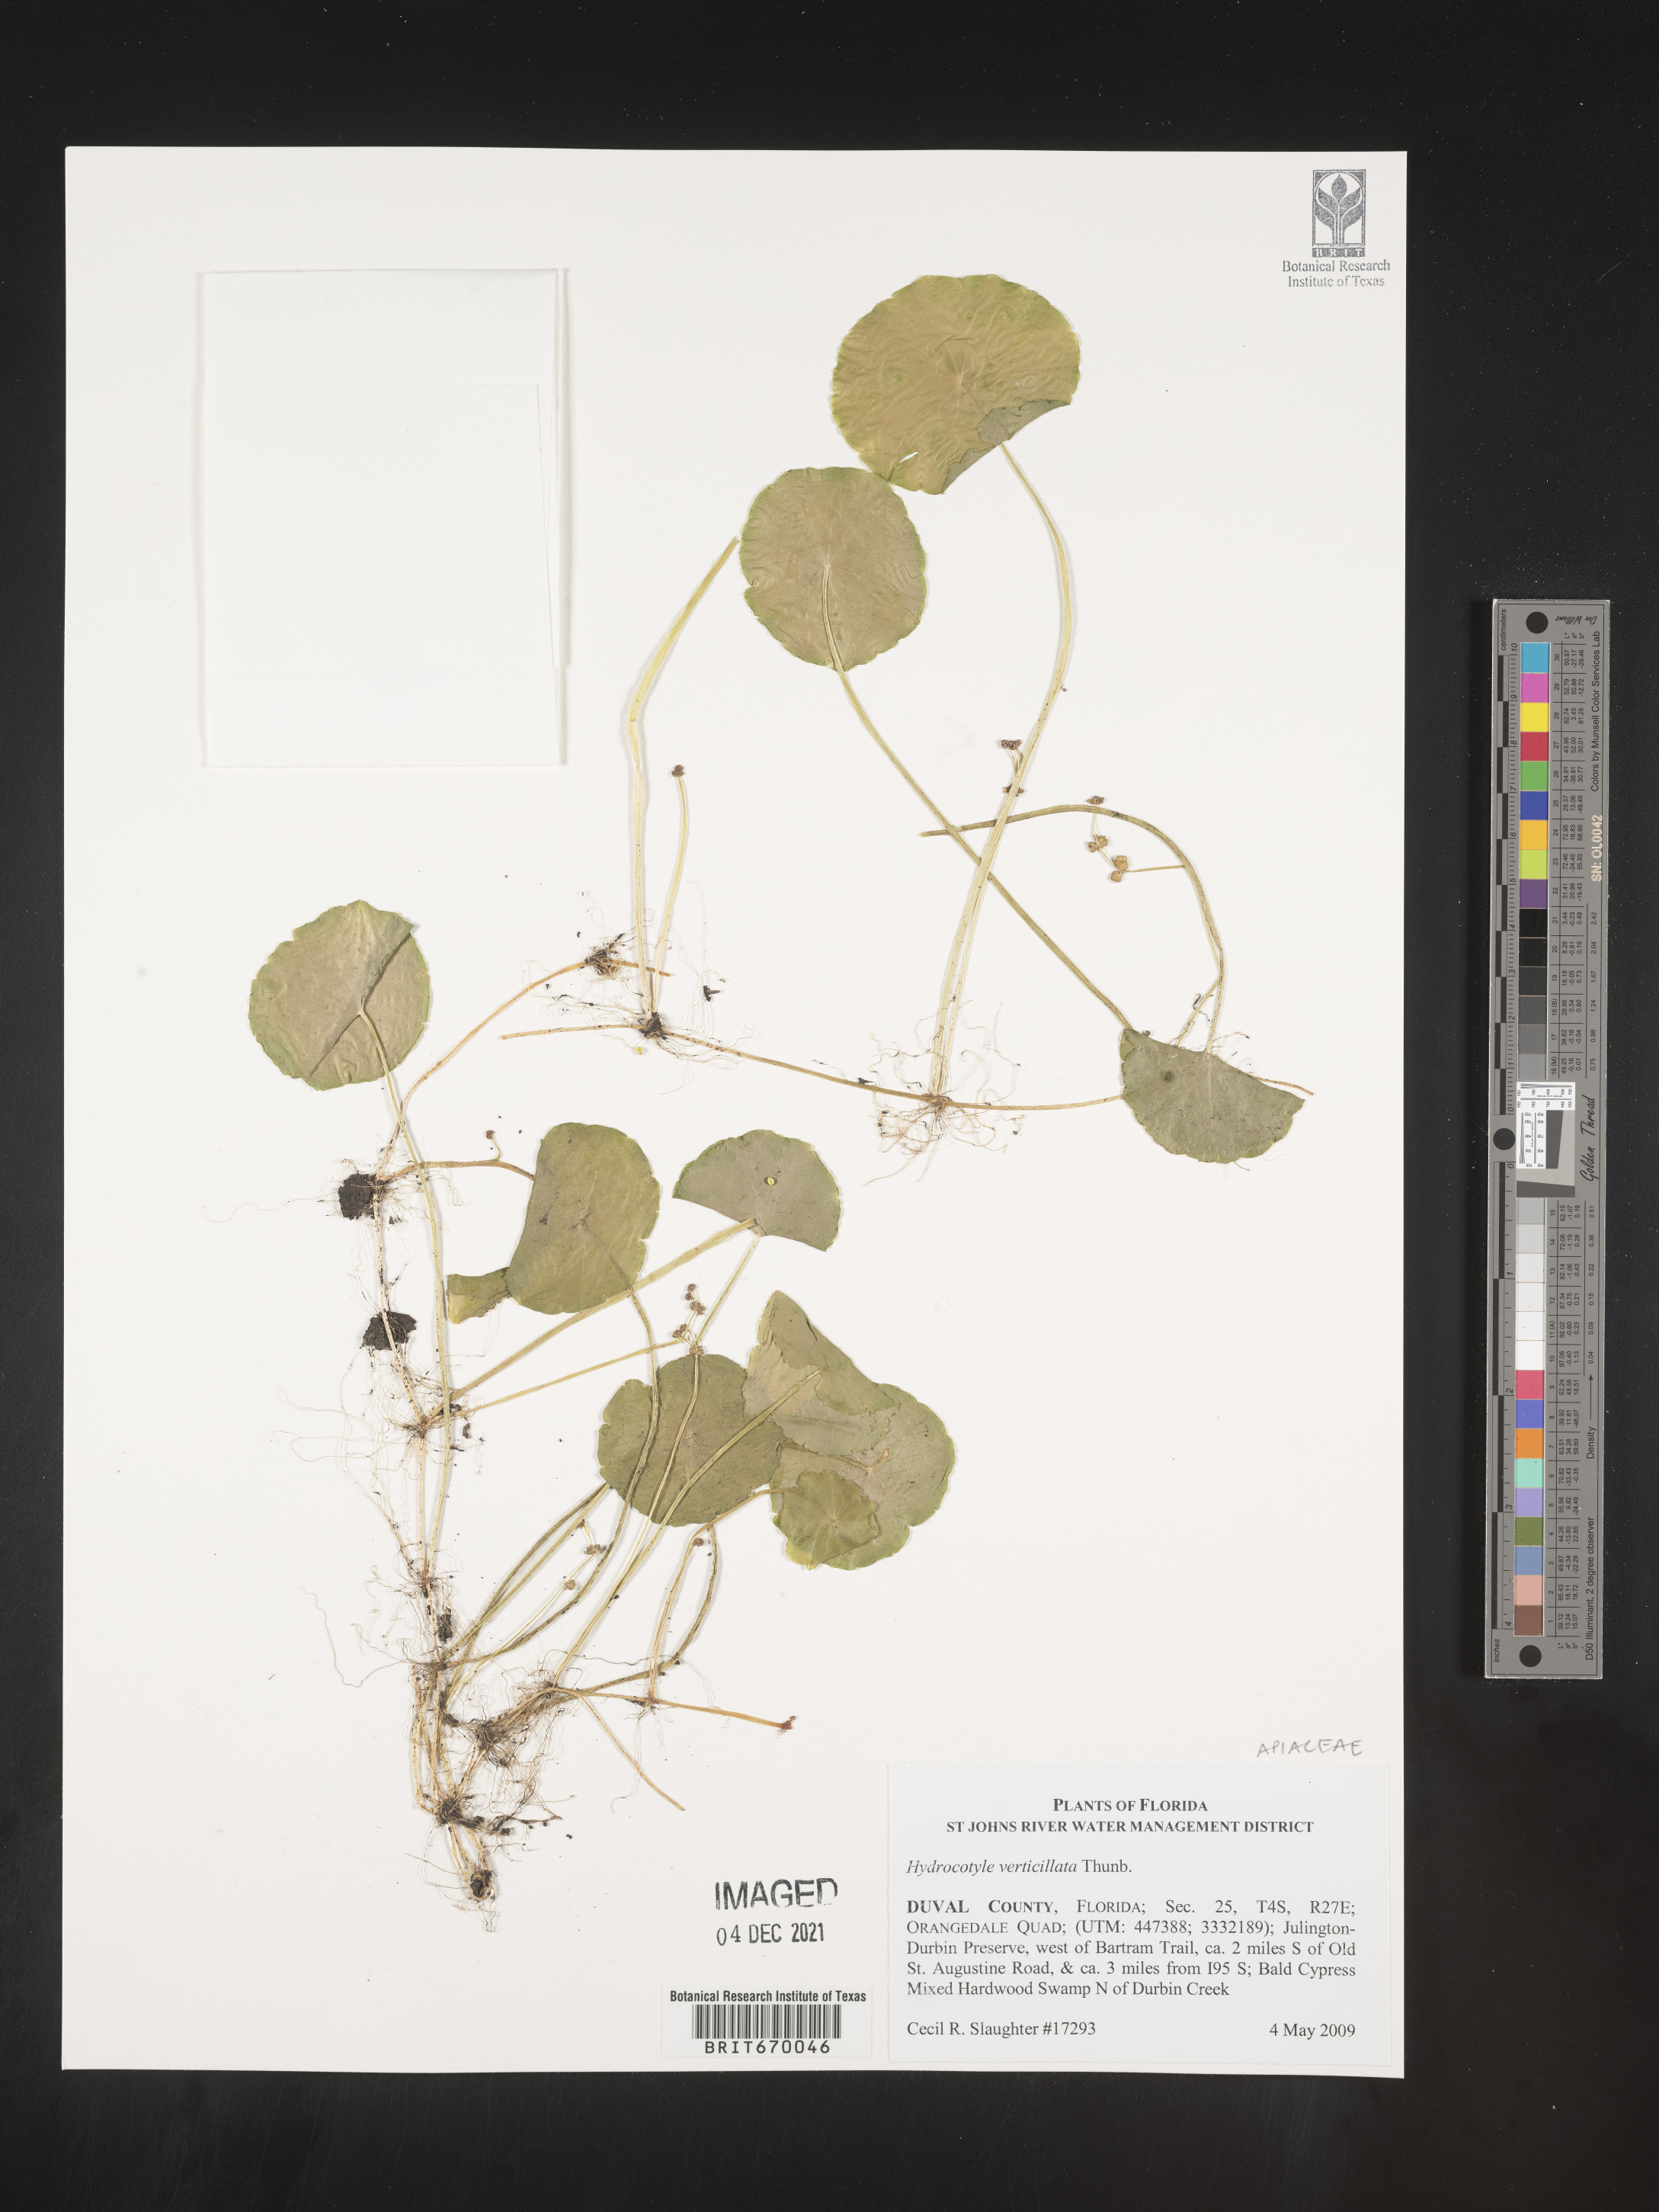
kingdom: Plantae
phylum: Tracheophyta
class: Magnoliopsida
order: Apiales
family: Araliaceae
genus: Hydrocotyle
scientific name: Hydrocotyle verticillata
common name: Whorled marshpennywort
